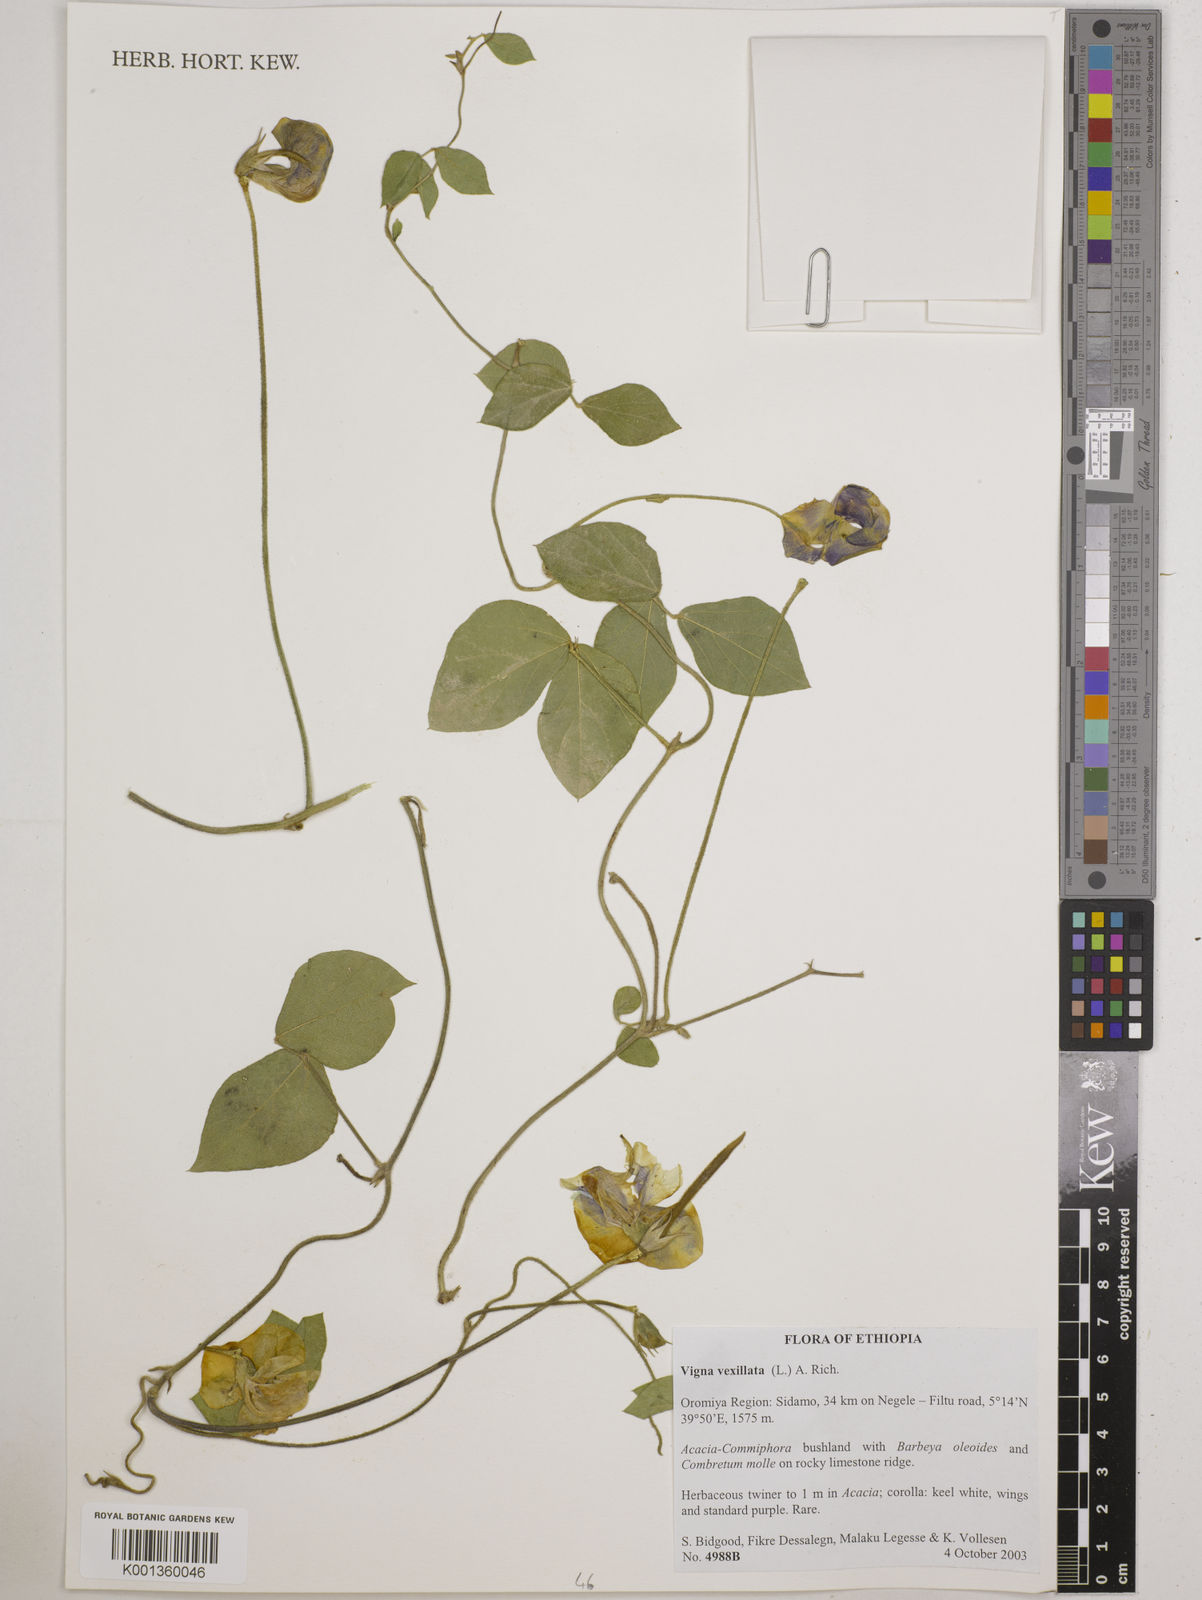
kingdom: Plantae
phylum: Tracheophyta
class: Magnoliopsida
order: Fabales
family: Fabaceae
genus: Vigna
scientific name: Vigna vexillata
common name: Zombi pea
